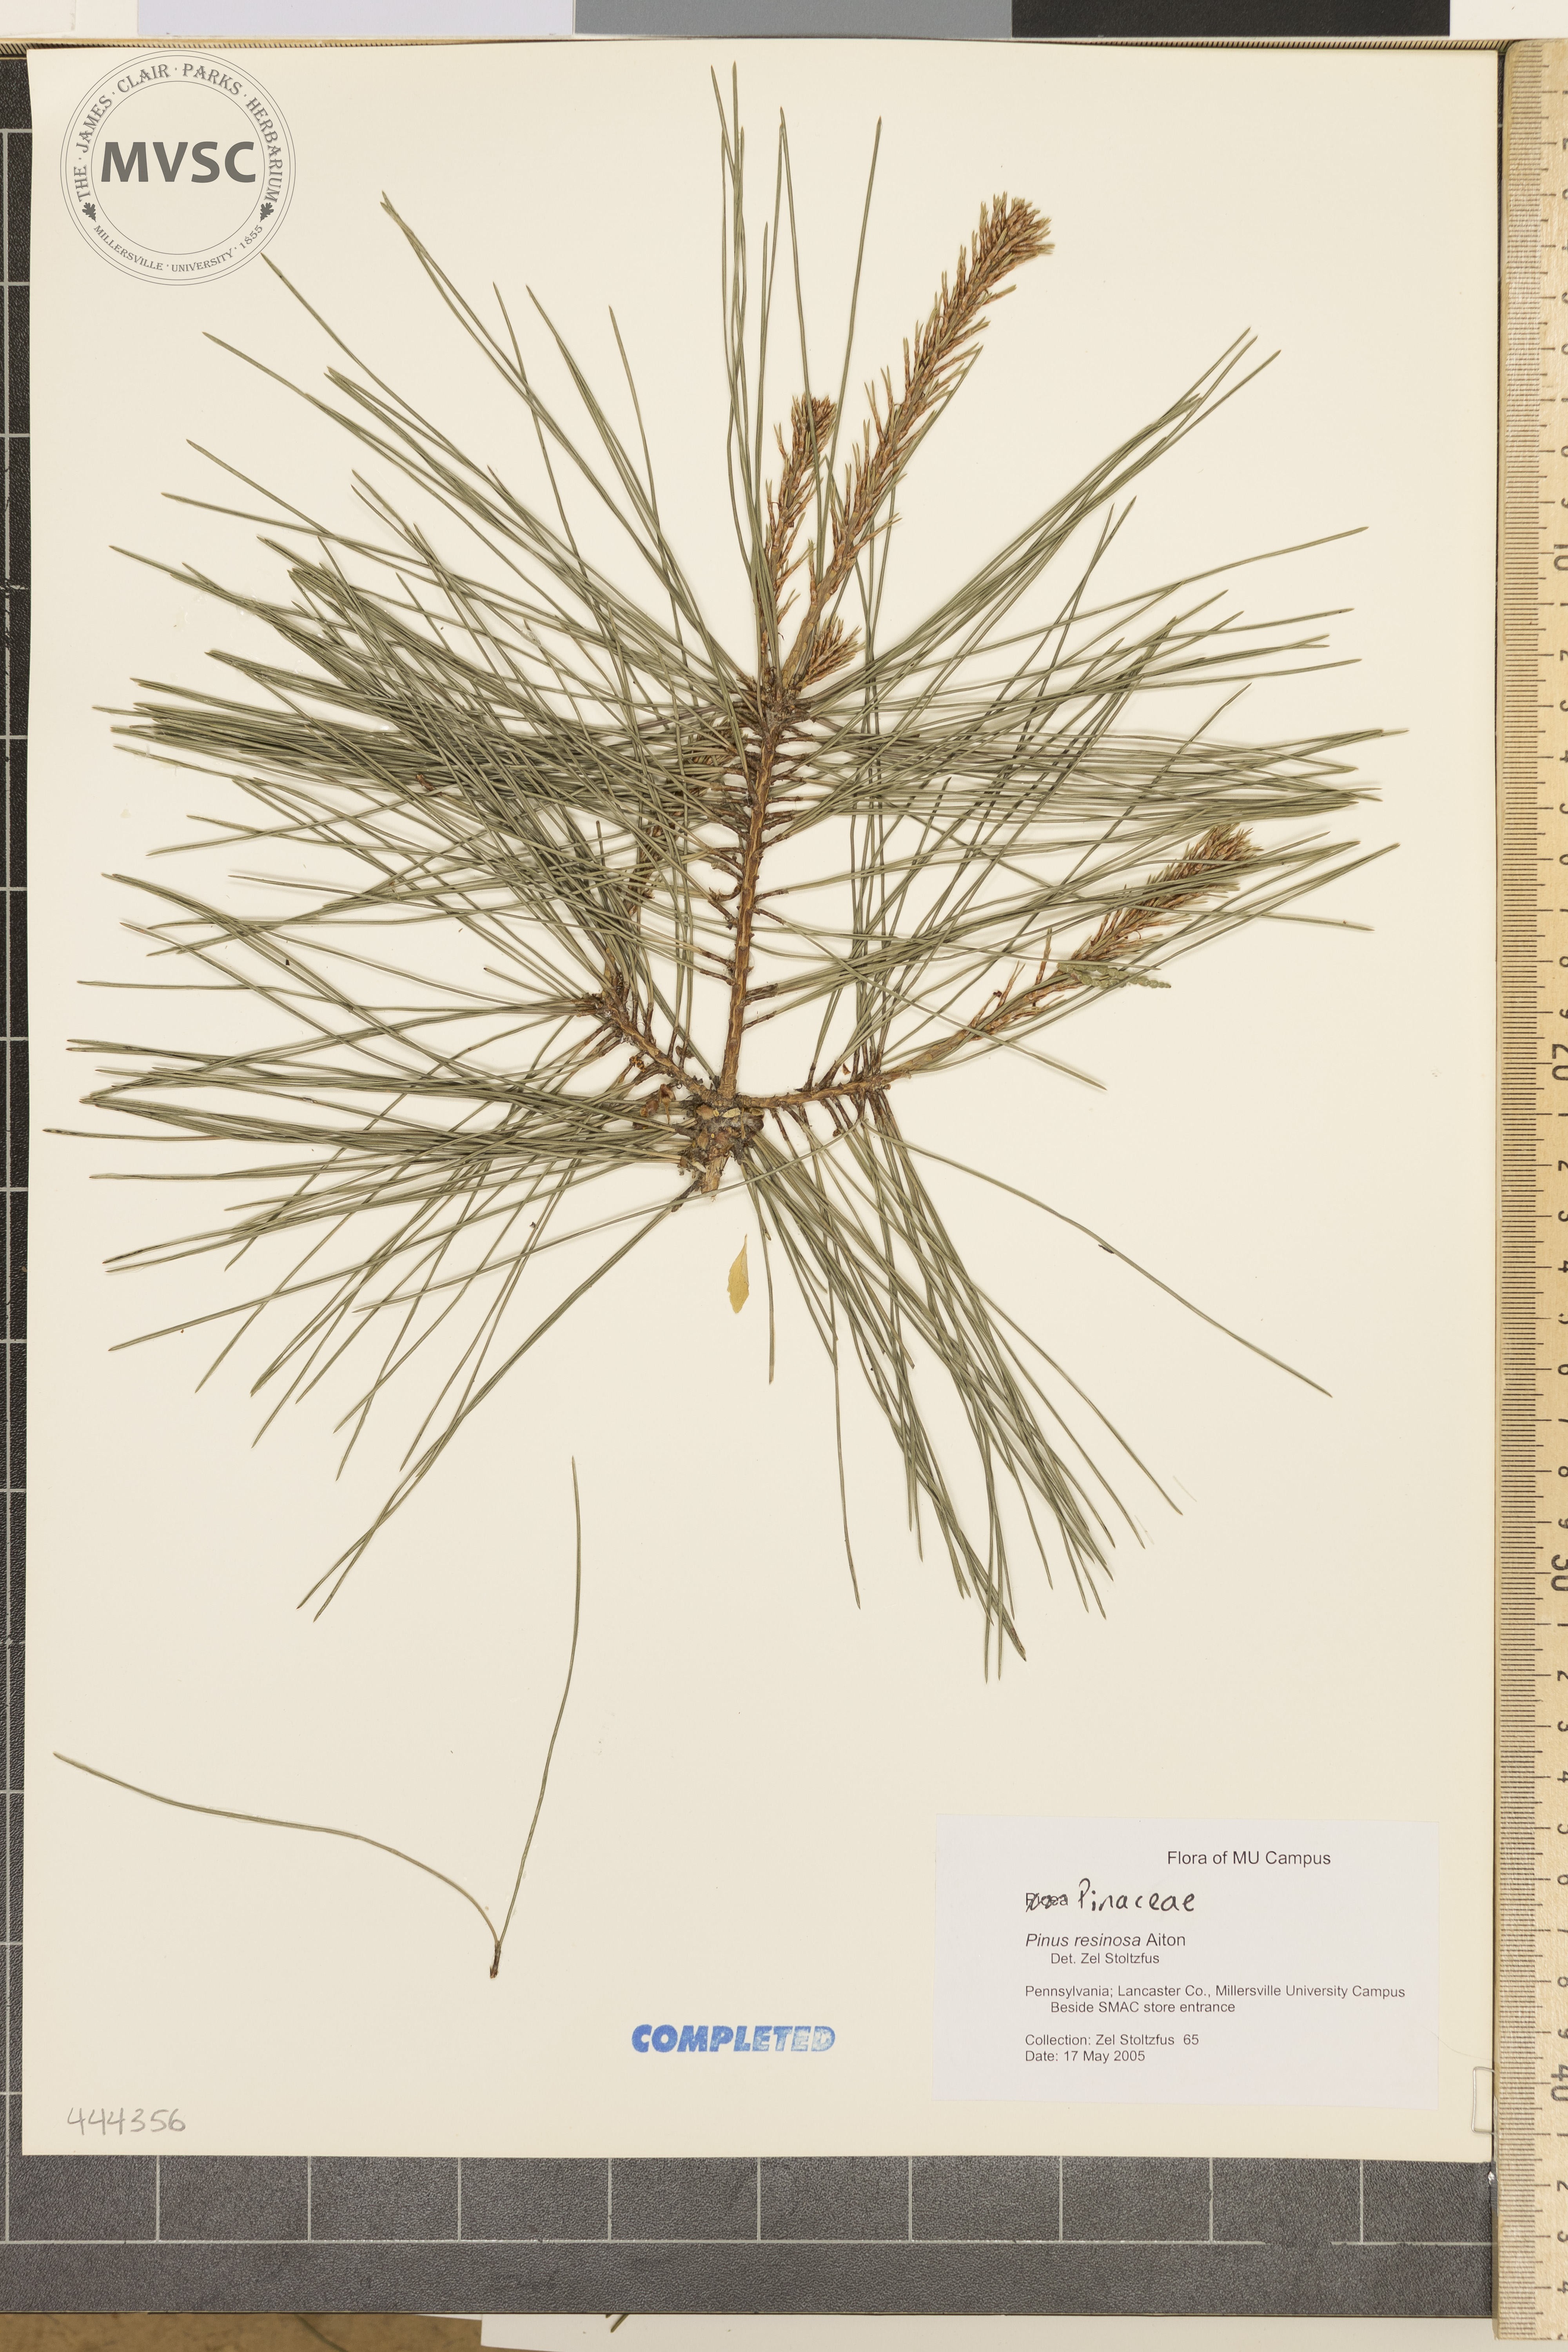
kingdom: Plantae
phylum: Tracheophyta
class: Pinopsida
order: Pinales
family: Pinaceae
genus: Pinus
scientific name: Pinus resinosa
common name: Norway pine
